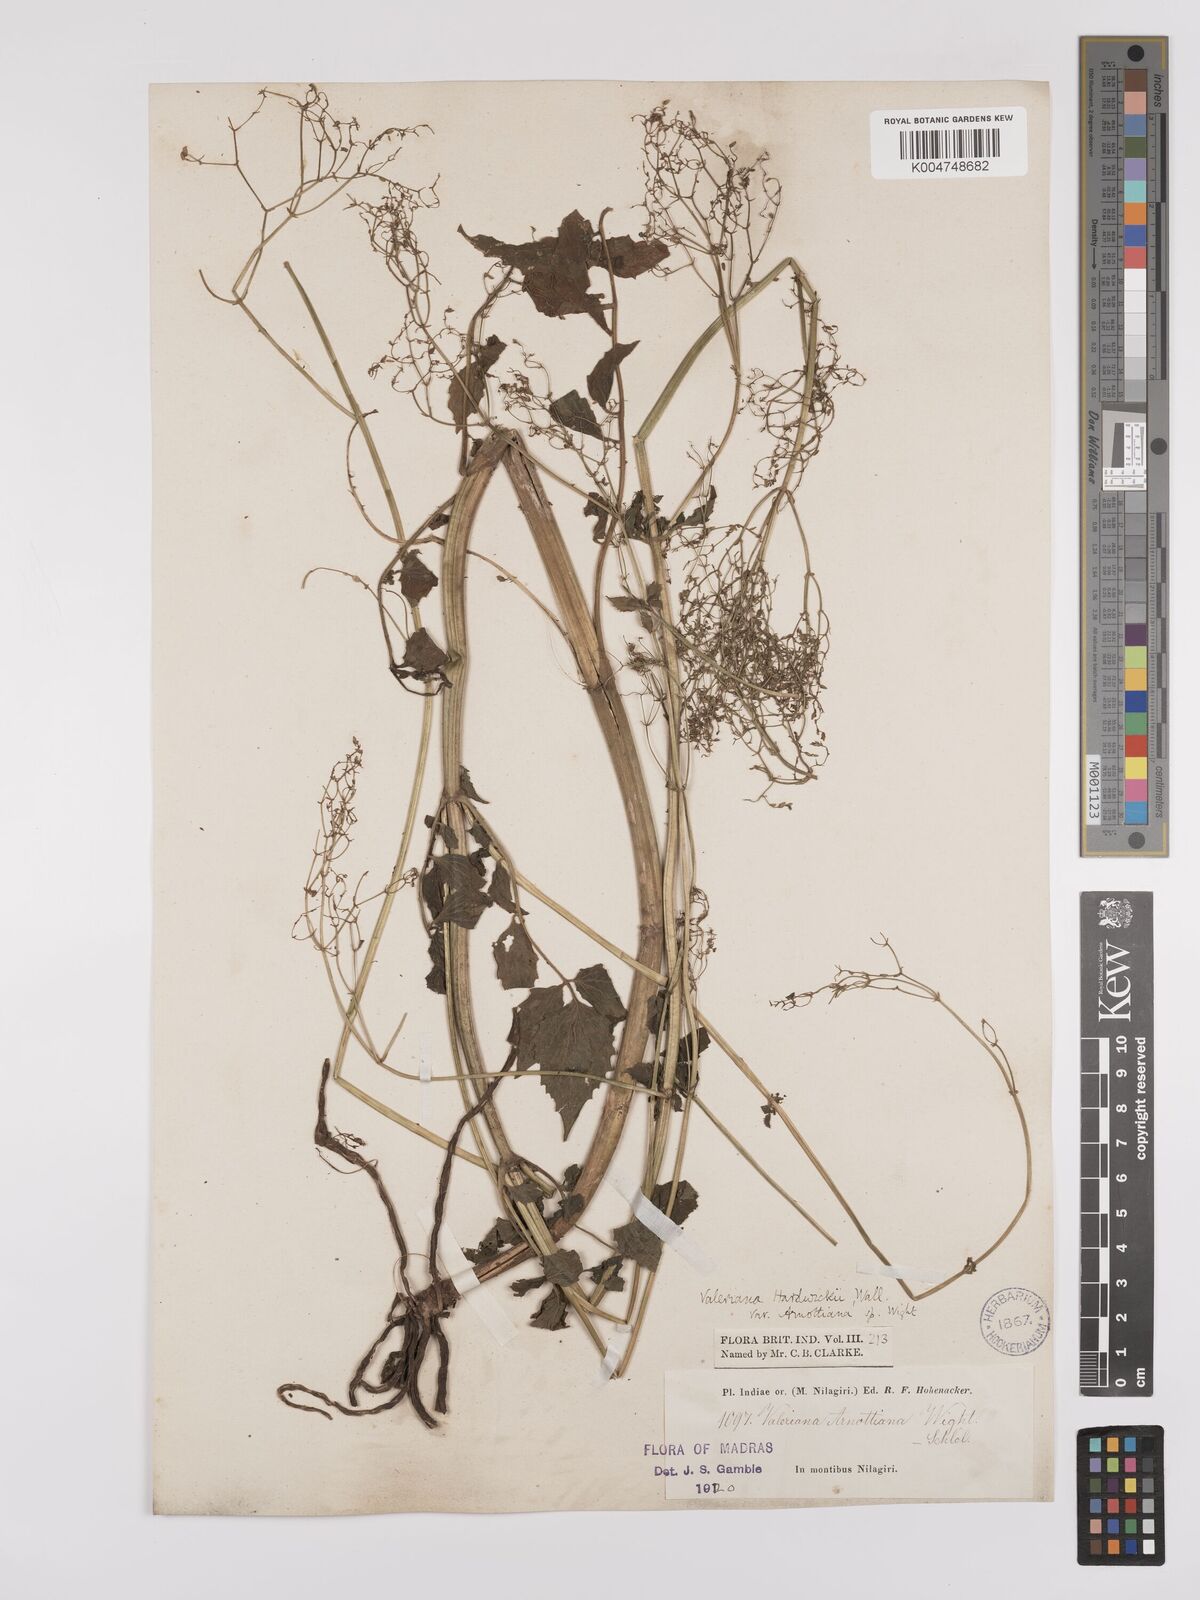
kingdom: Plantae
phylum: Tracheophyta
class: Magnoliopsida
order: Dipsacales
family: Caprifoliaceae
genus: Valeriana
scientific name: Valeriana hardwickei
